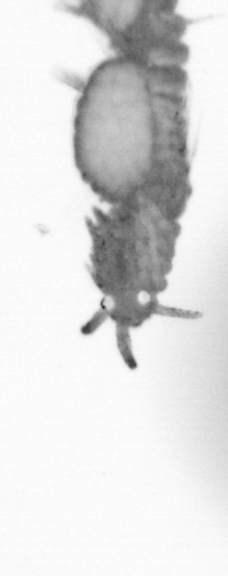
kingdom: Animalia
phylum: Annelida
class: Polychaeta
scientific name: Polychaeta
